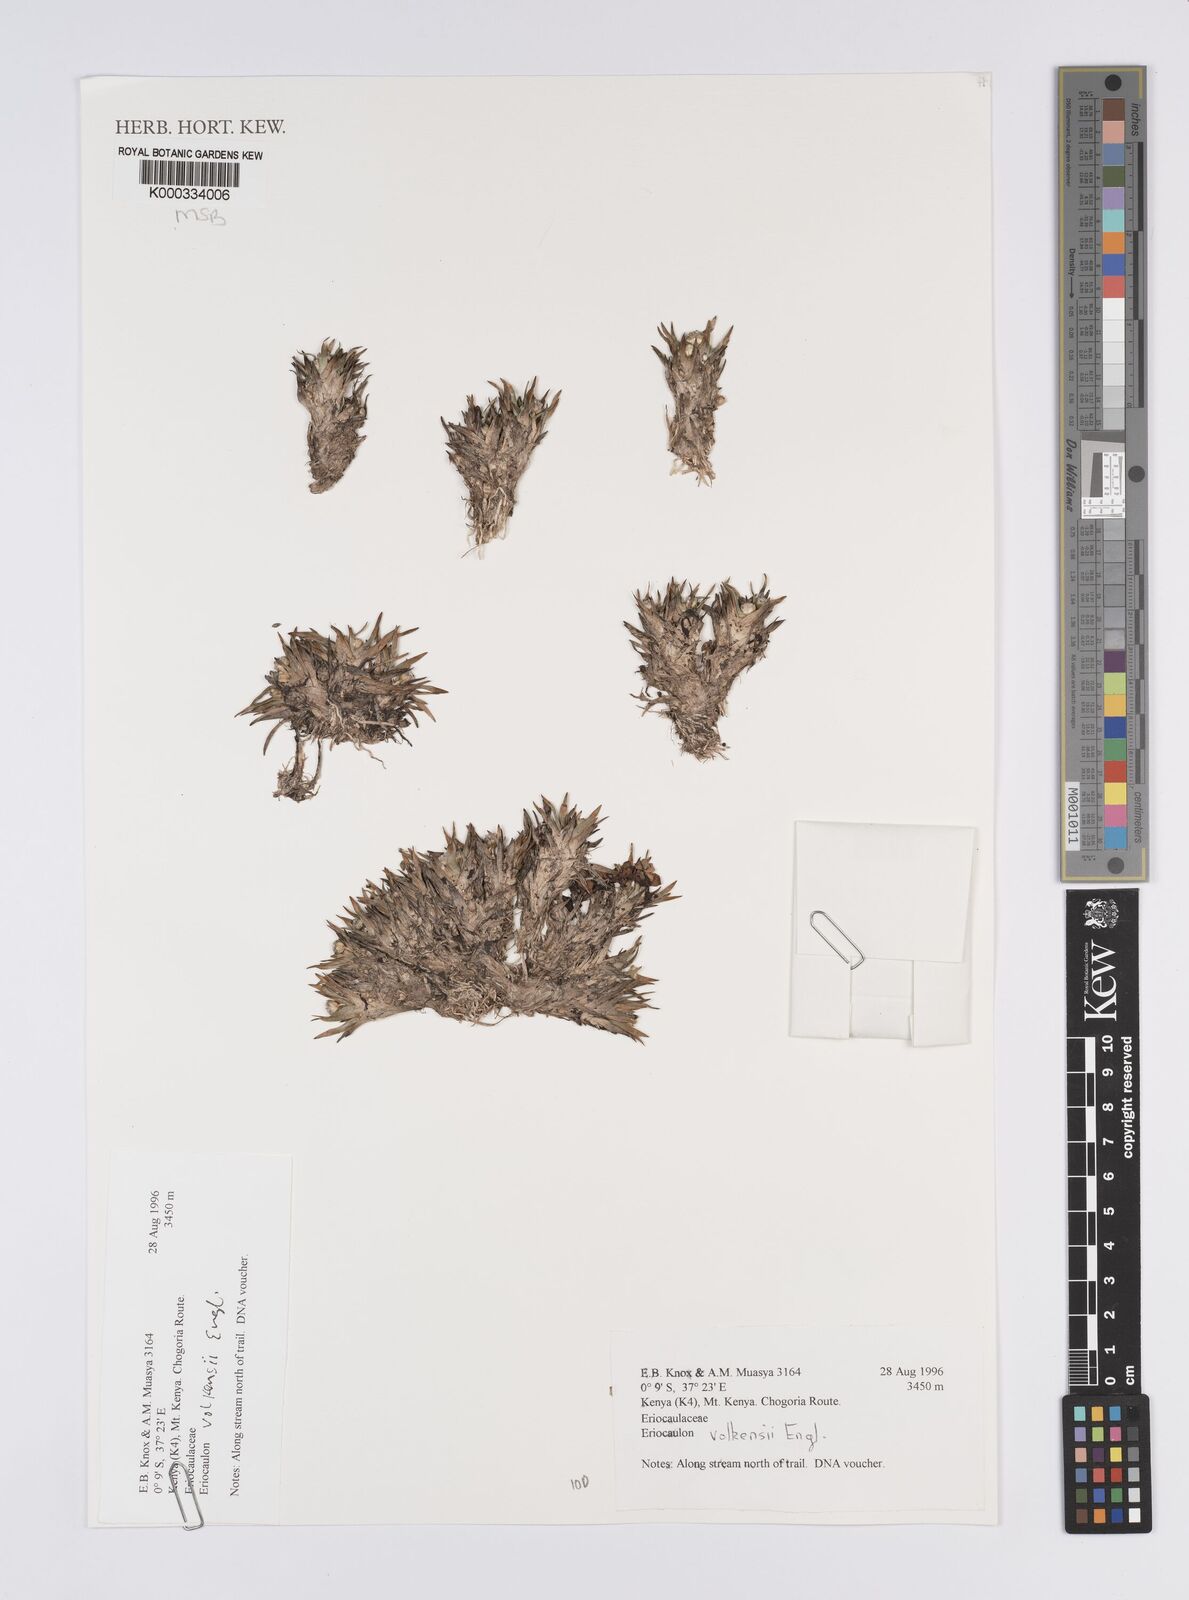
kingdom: Plantae
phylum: Tracheophyta
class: Liliopsida
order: Poales
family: Eriocaulaceae
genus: Eriocaulon
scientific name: Eriocaulon volkensii
